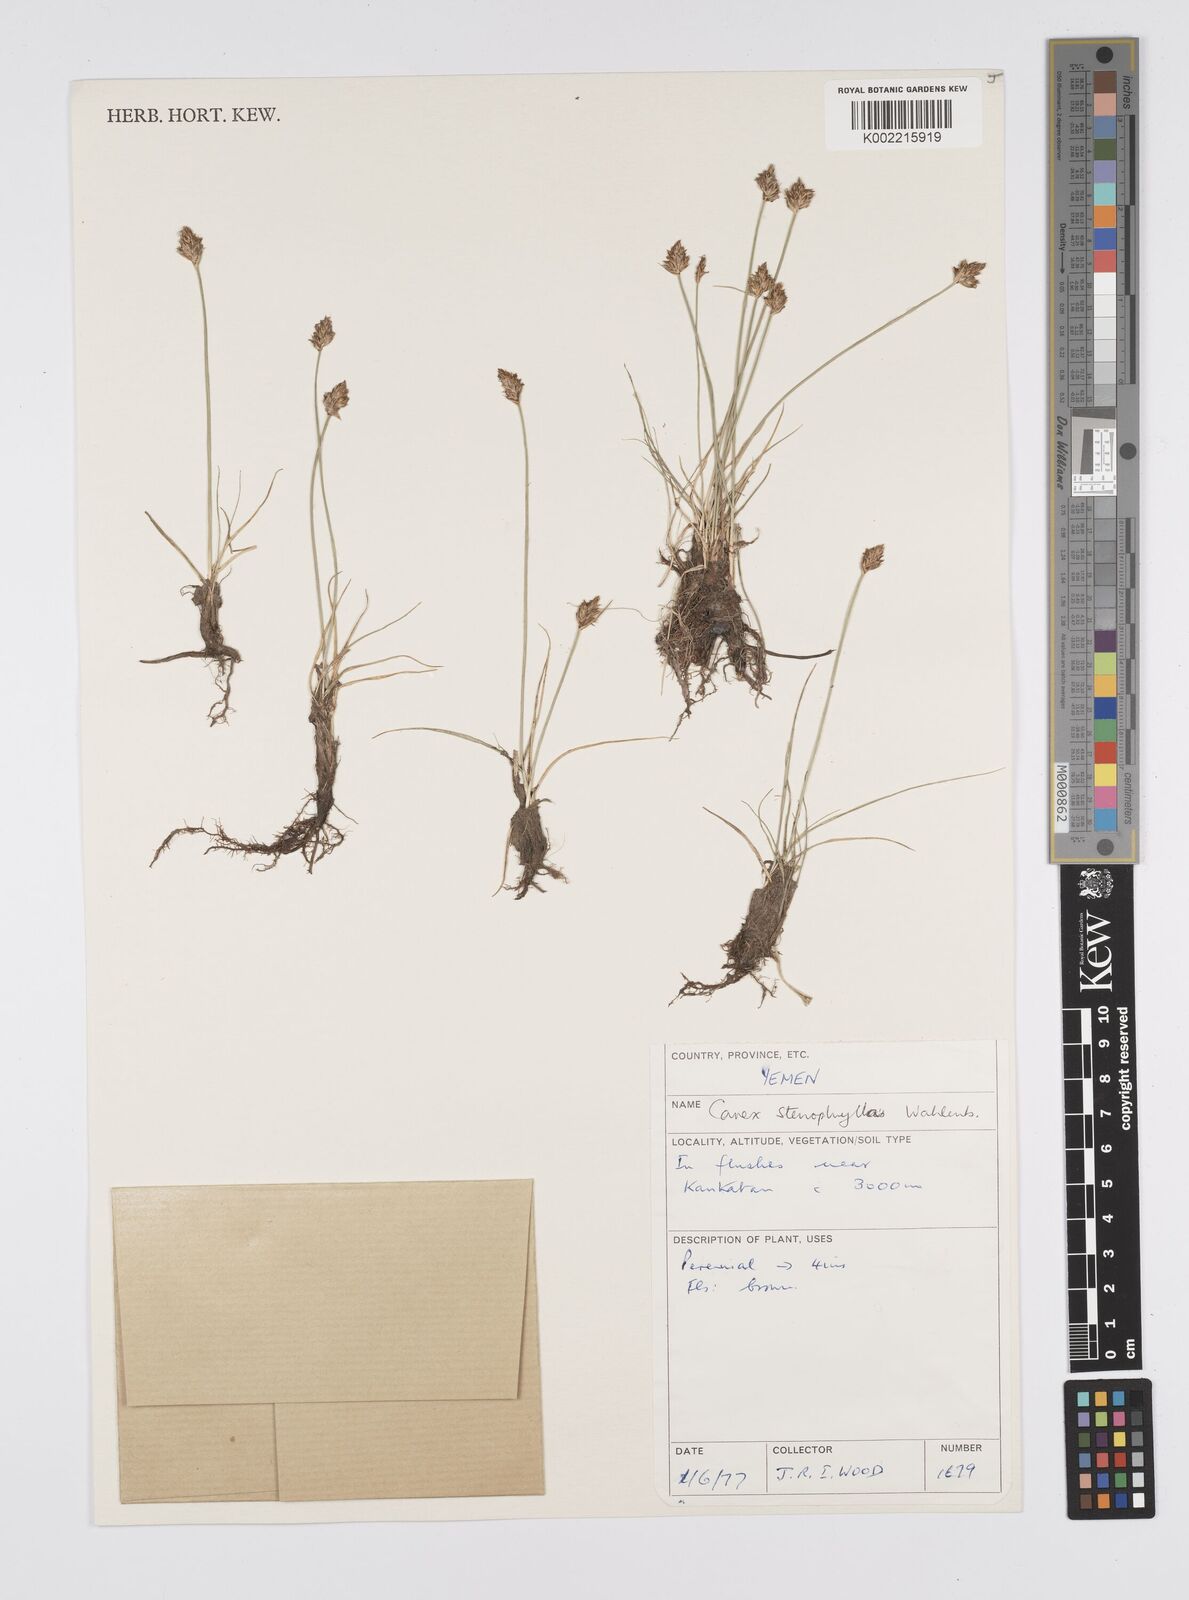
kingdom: Plantae
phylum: Tracheophyta
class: Liliopsida
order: Poales
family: Cyperaceae
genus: Carex
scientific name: Carex stenophylla
